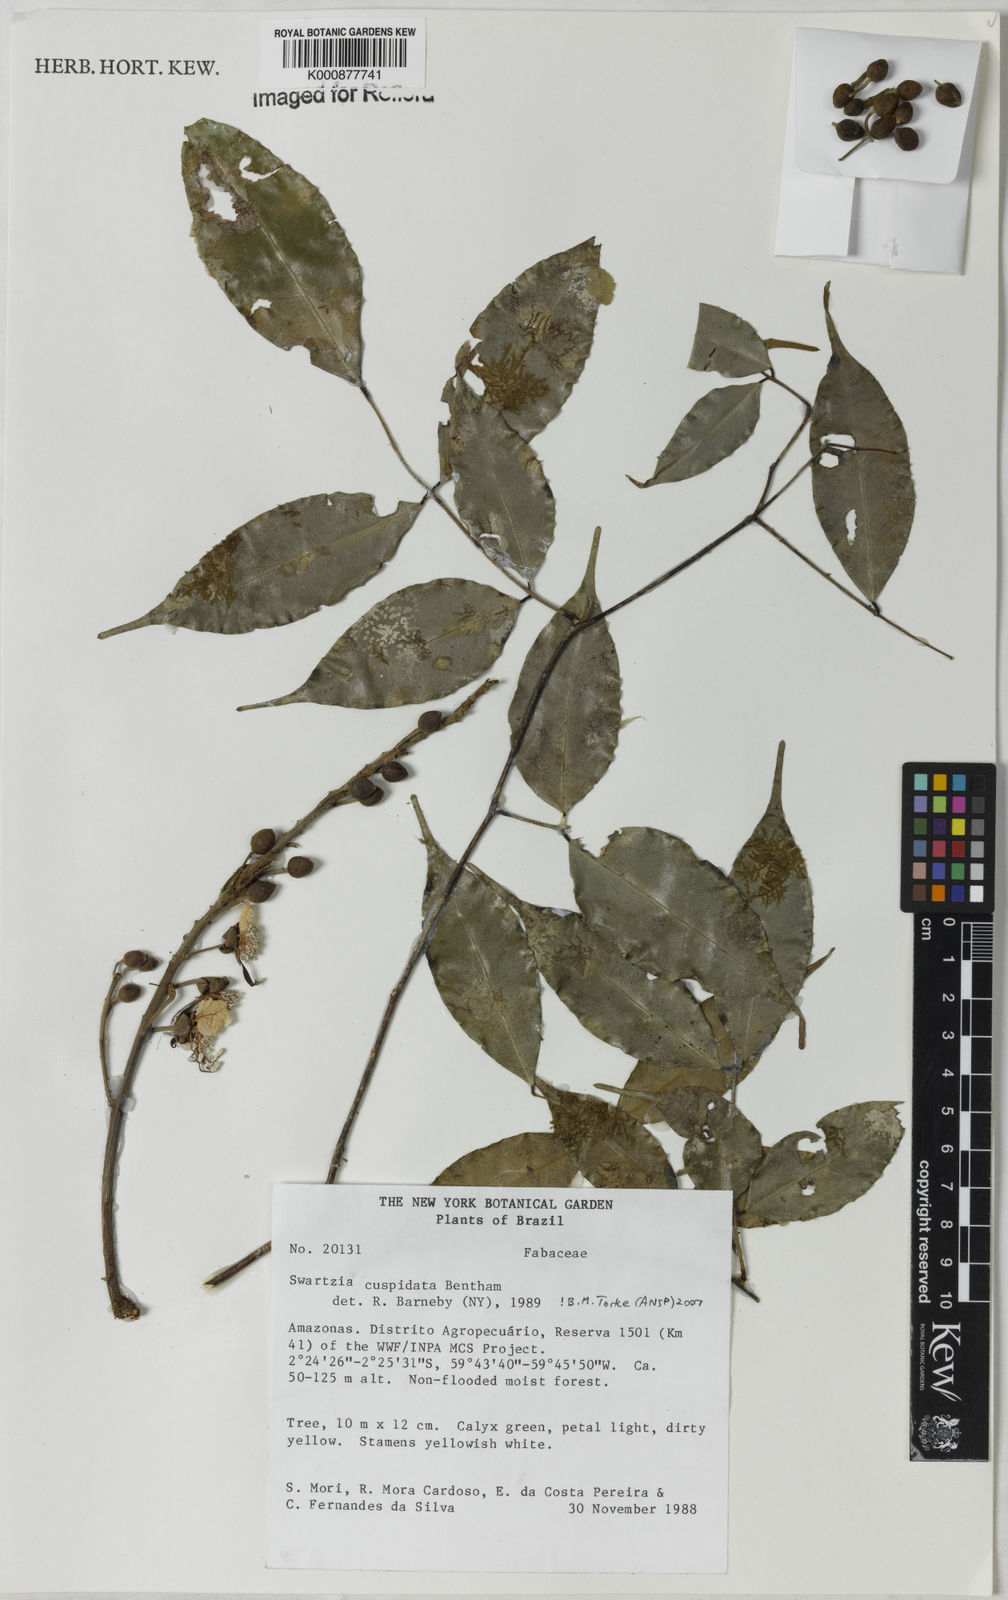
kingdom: Plantae
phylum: Tracheophyta
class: Magnoliopsida
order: Fabales
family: Fabaceae
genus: Swartzia
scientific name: Swartzia cuspidata
